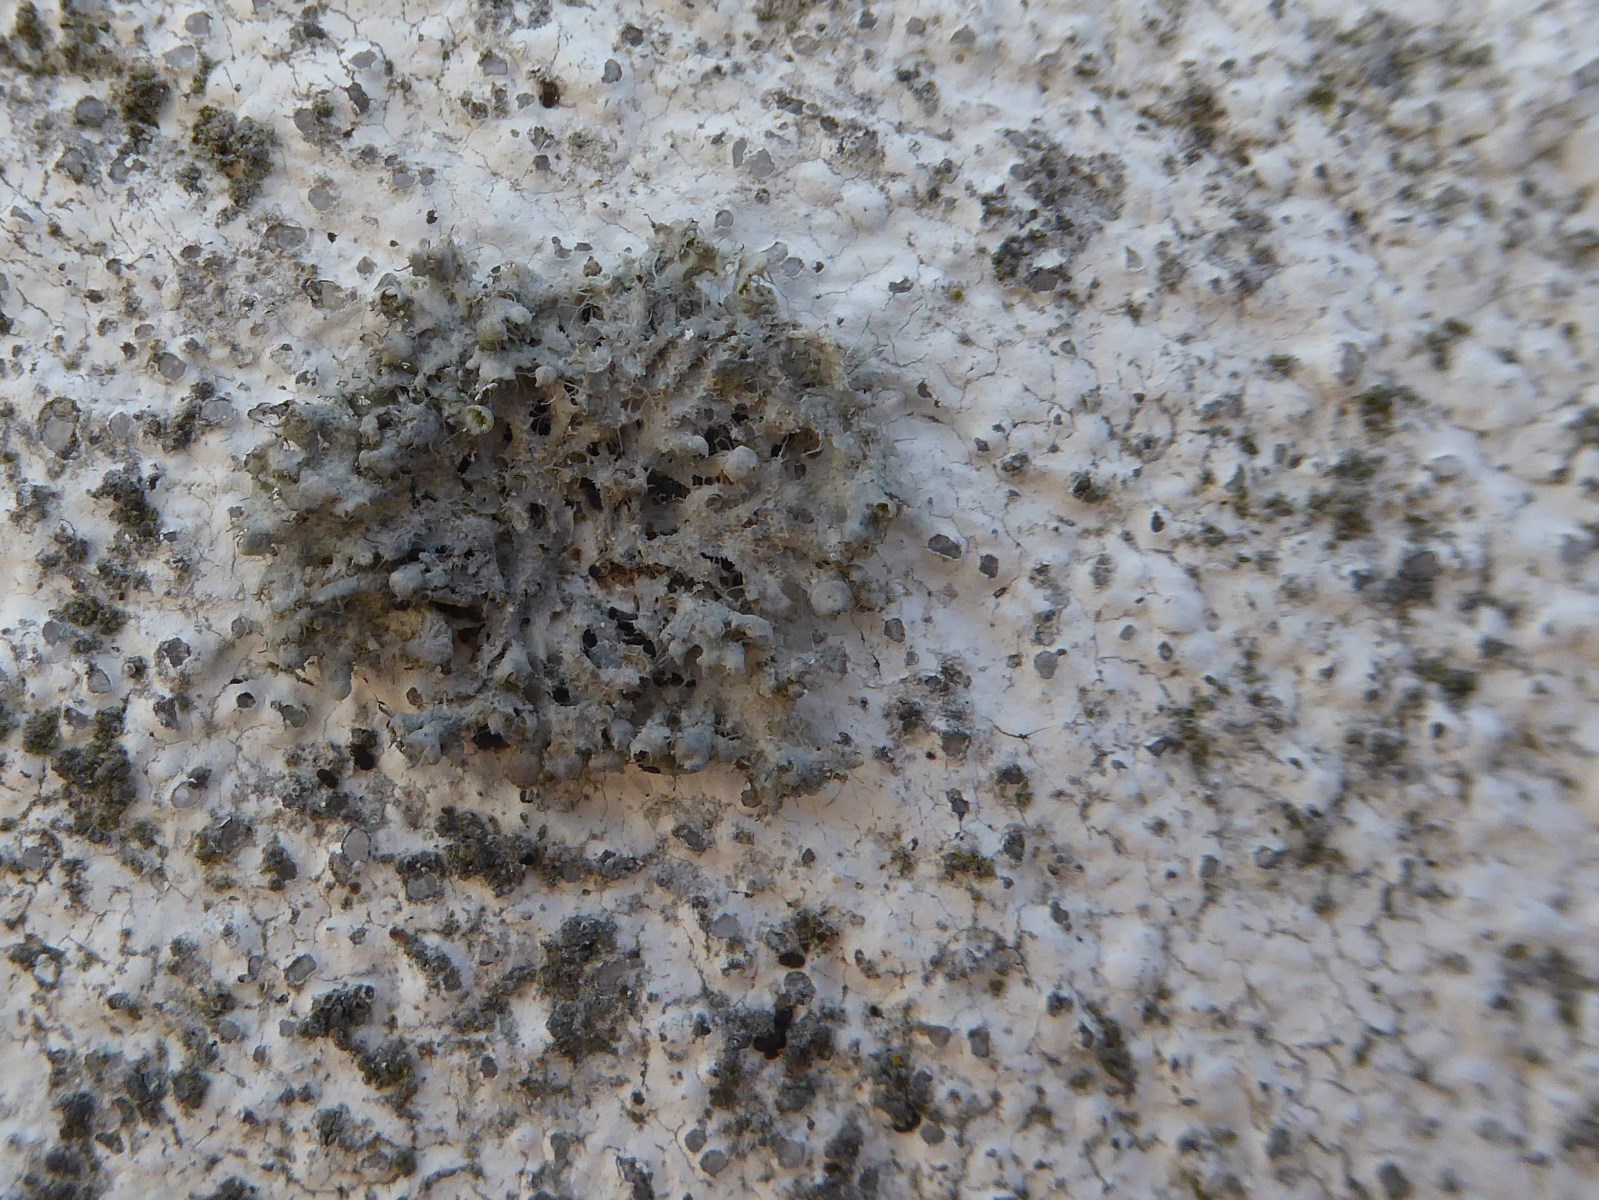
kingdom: Fungi
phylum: Ascomycota
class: Lecanoromycetes
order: Caliciales
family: Physciaceae
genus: Physcia
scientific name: Physcia adscendens
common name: hætte-rosetlav
